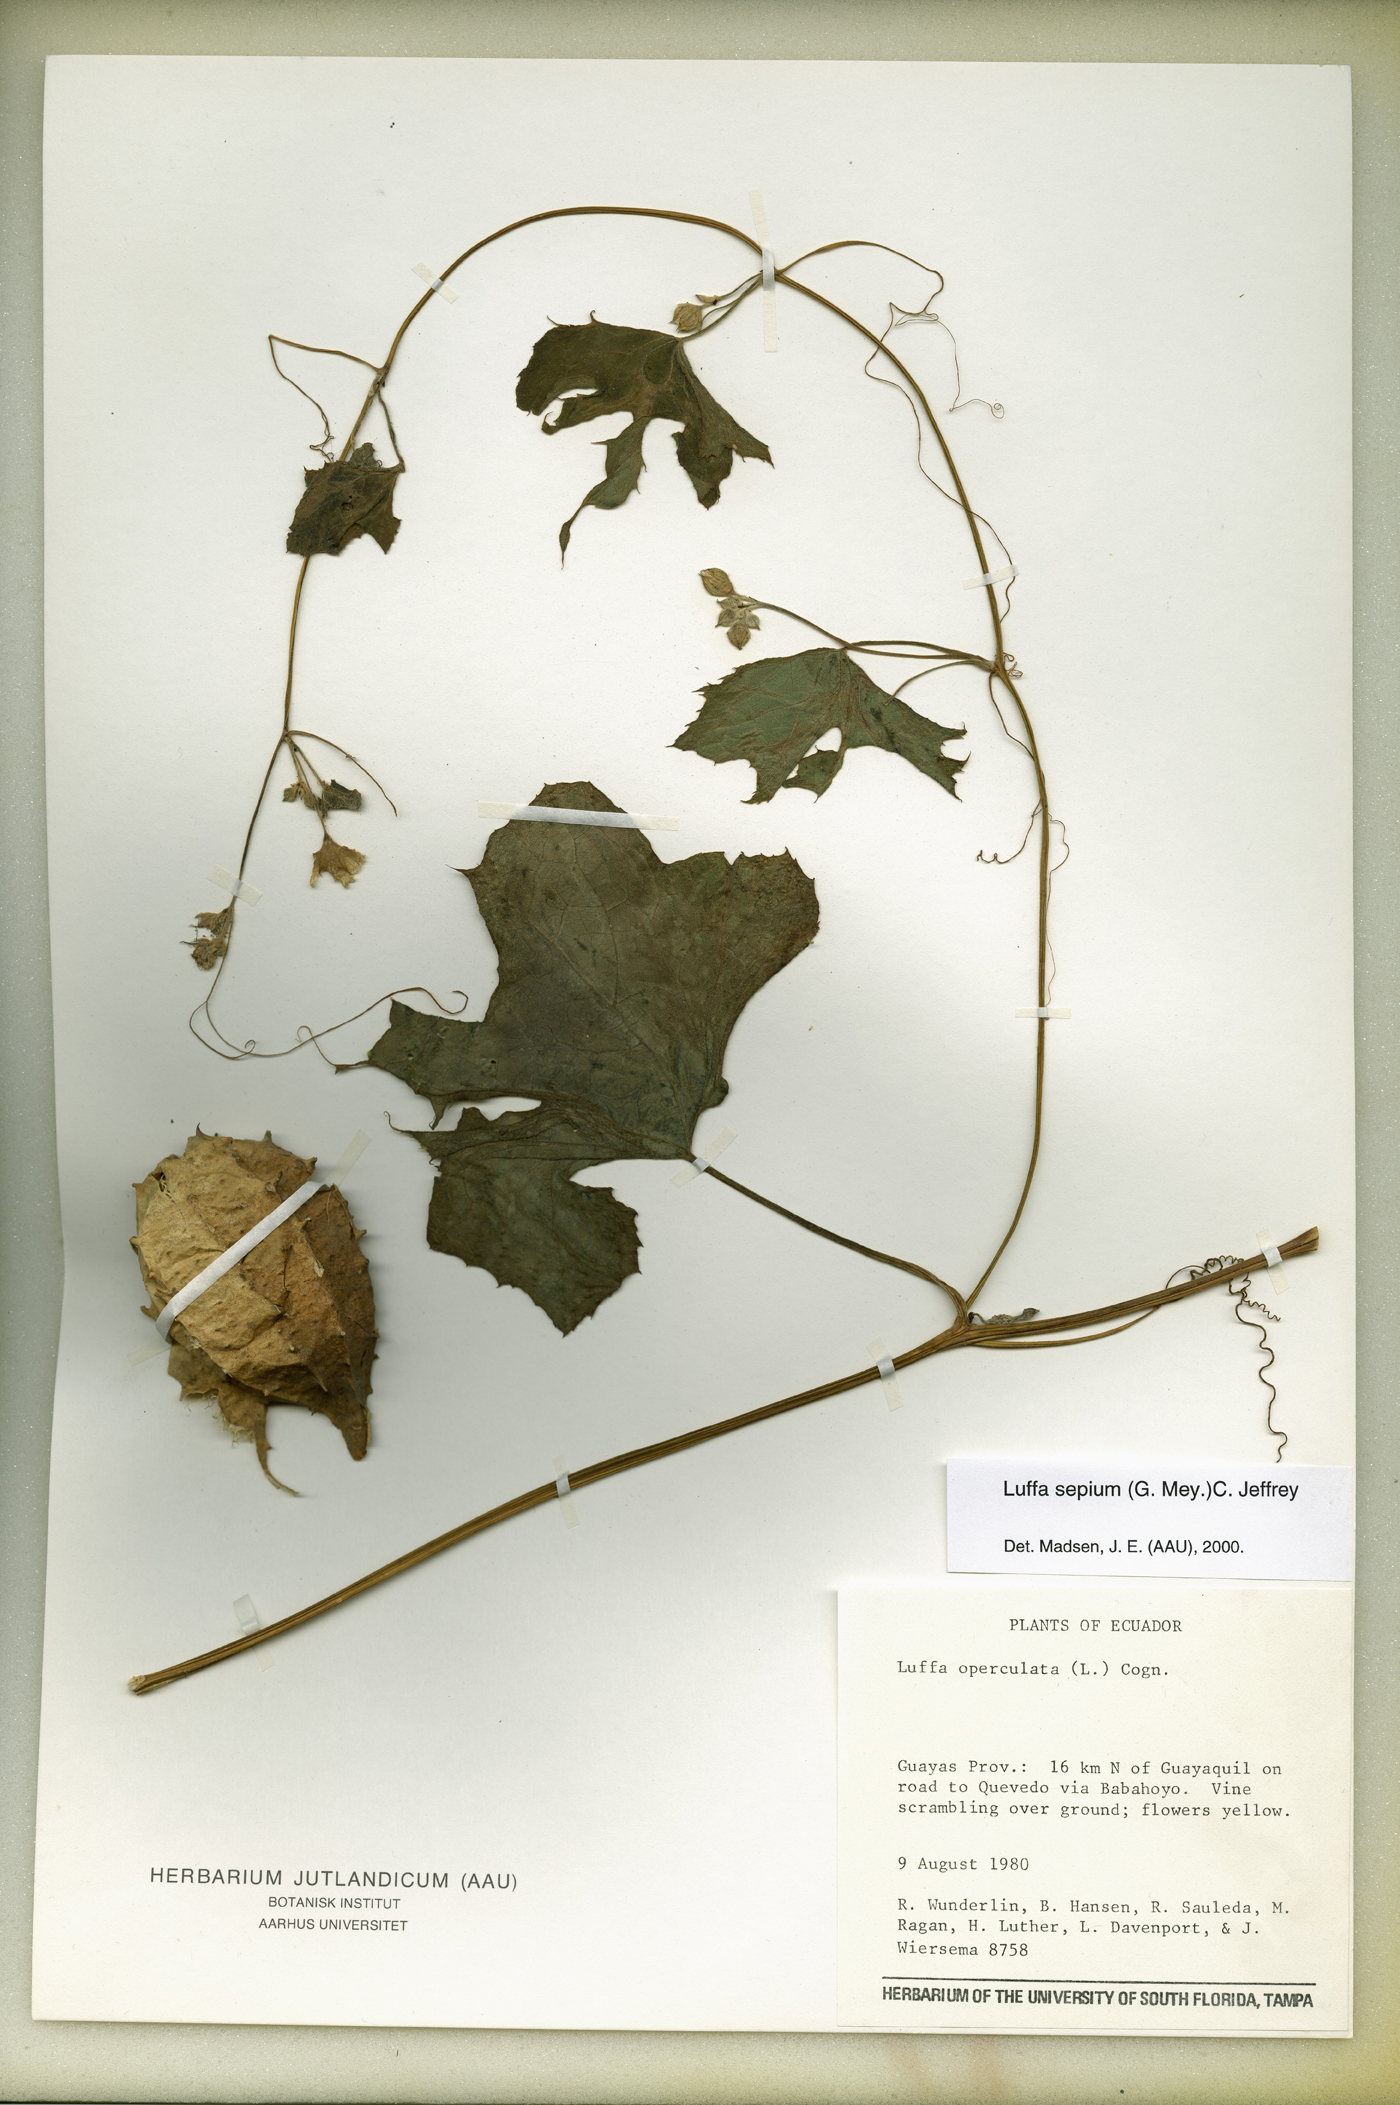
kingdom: Plantae
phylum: Tracheophyta
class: Magnoliopsida
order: Cucurbitales
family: Cucurbitaceae
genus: Luffa
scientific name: Luffa astorii
